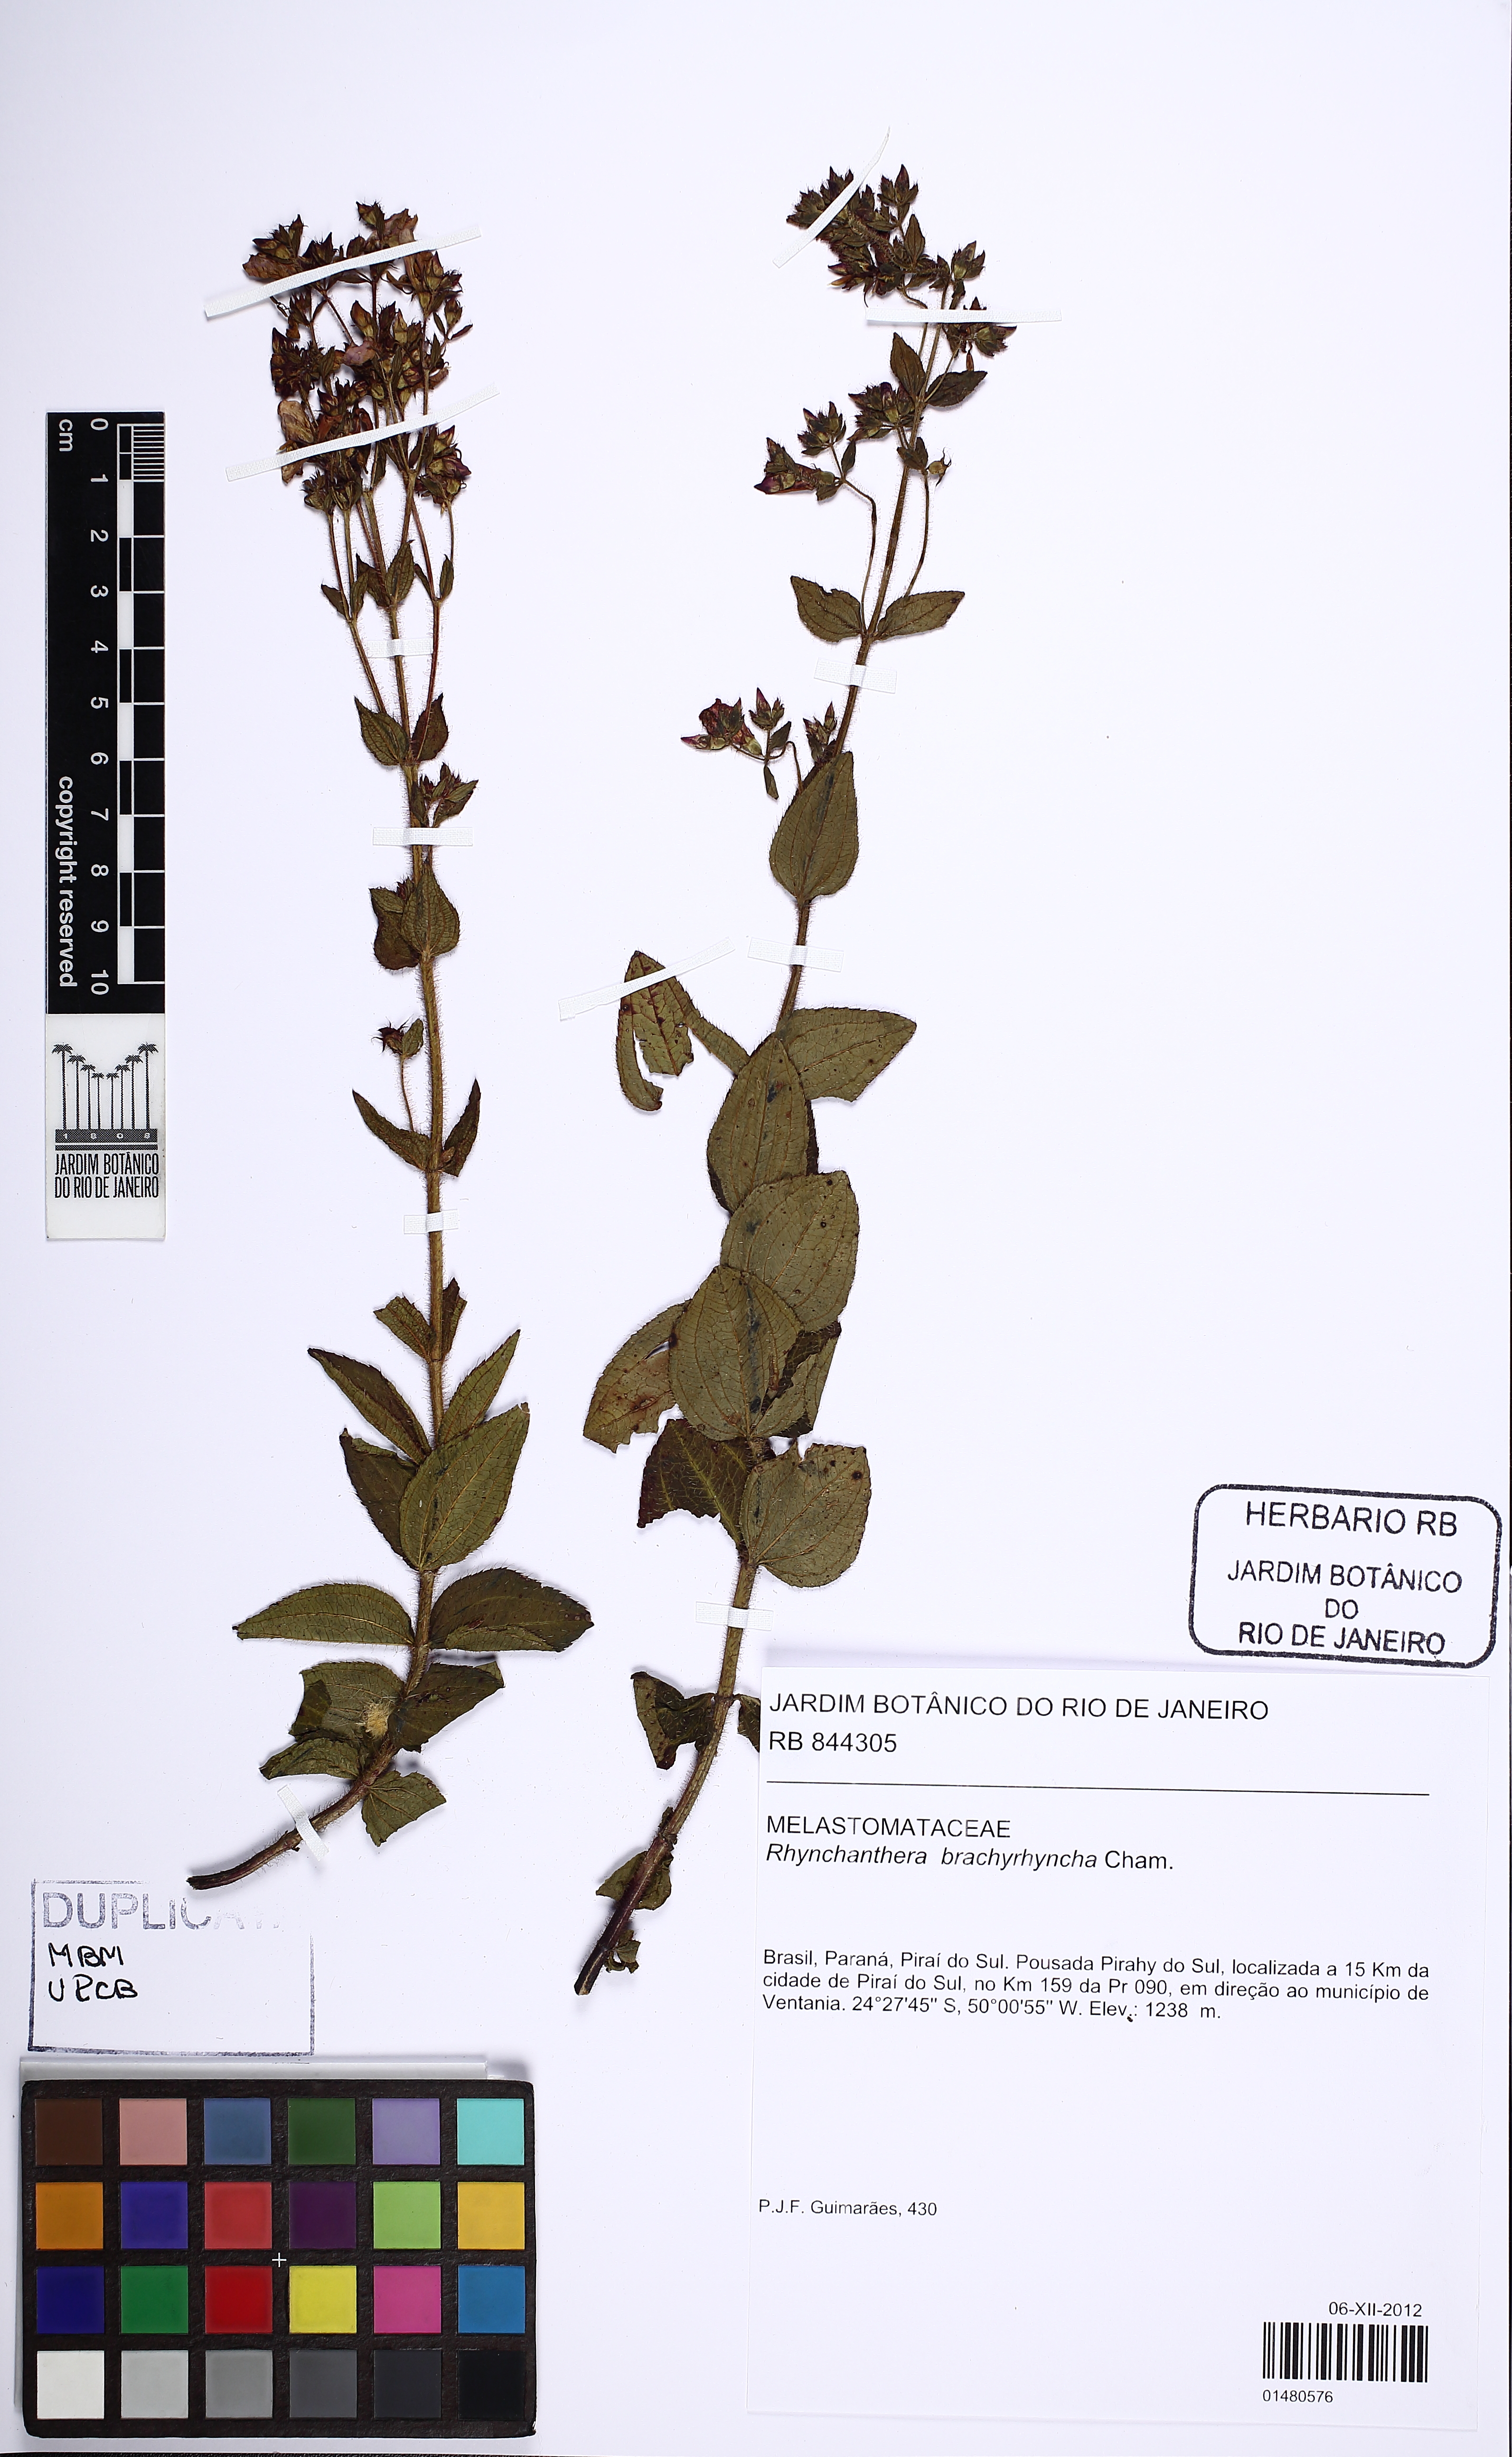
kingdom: Plantae
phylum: Tracheophyta
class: Magnoliopsida
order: Myrtales
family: Melastomataceae
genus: Rhynchanthera
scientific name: Rhynchanthera brachyrhyncha
